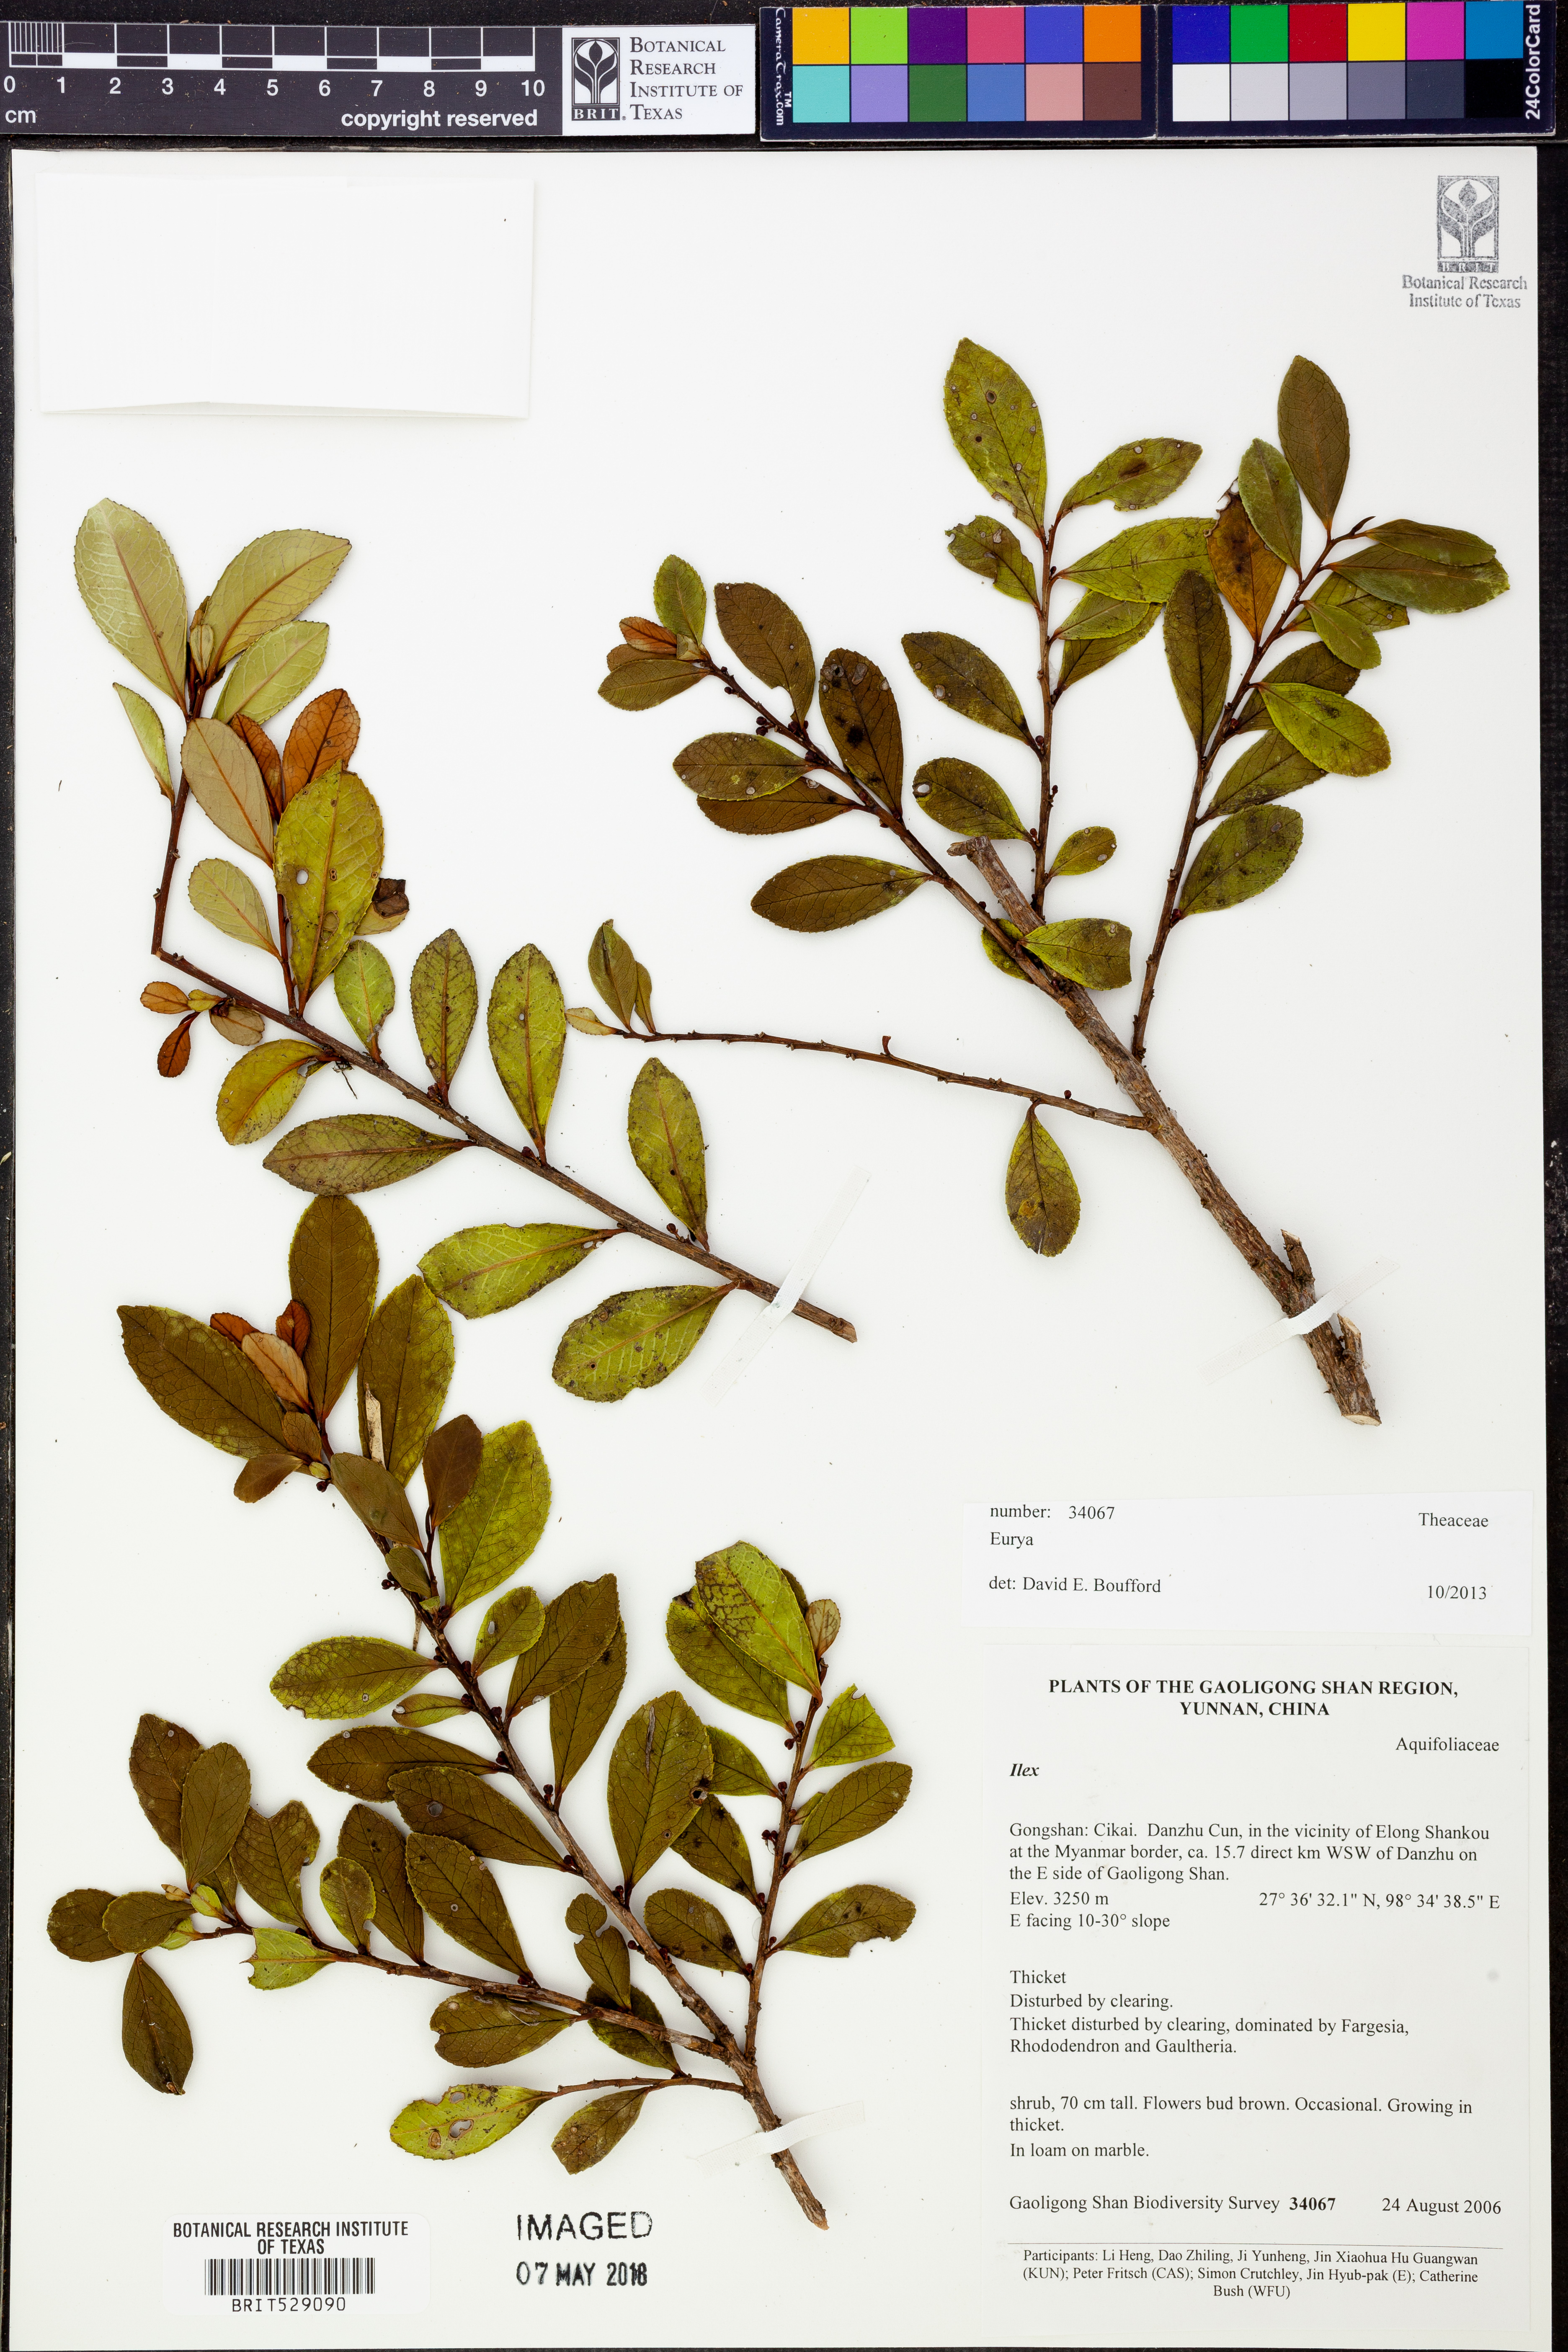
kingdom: Plantae
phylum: Tracheophyta
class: Magnoliopsida
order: Ericales
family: Pentaphylacaceae
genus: Eurya
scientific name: Eurya
